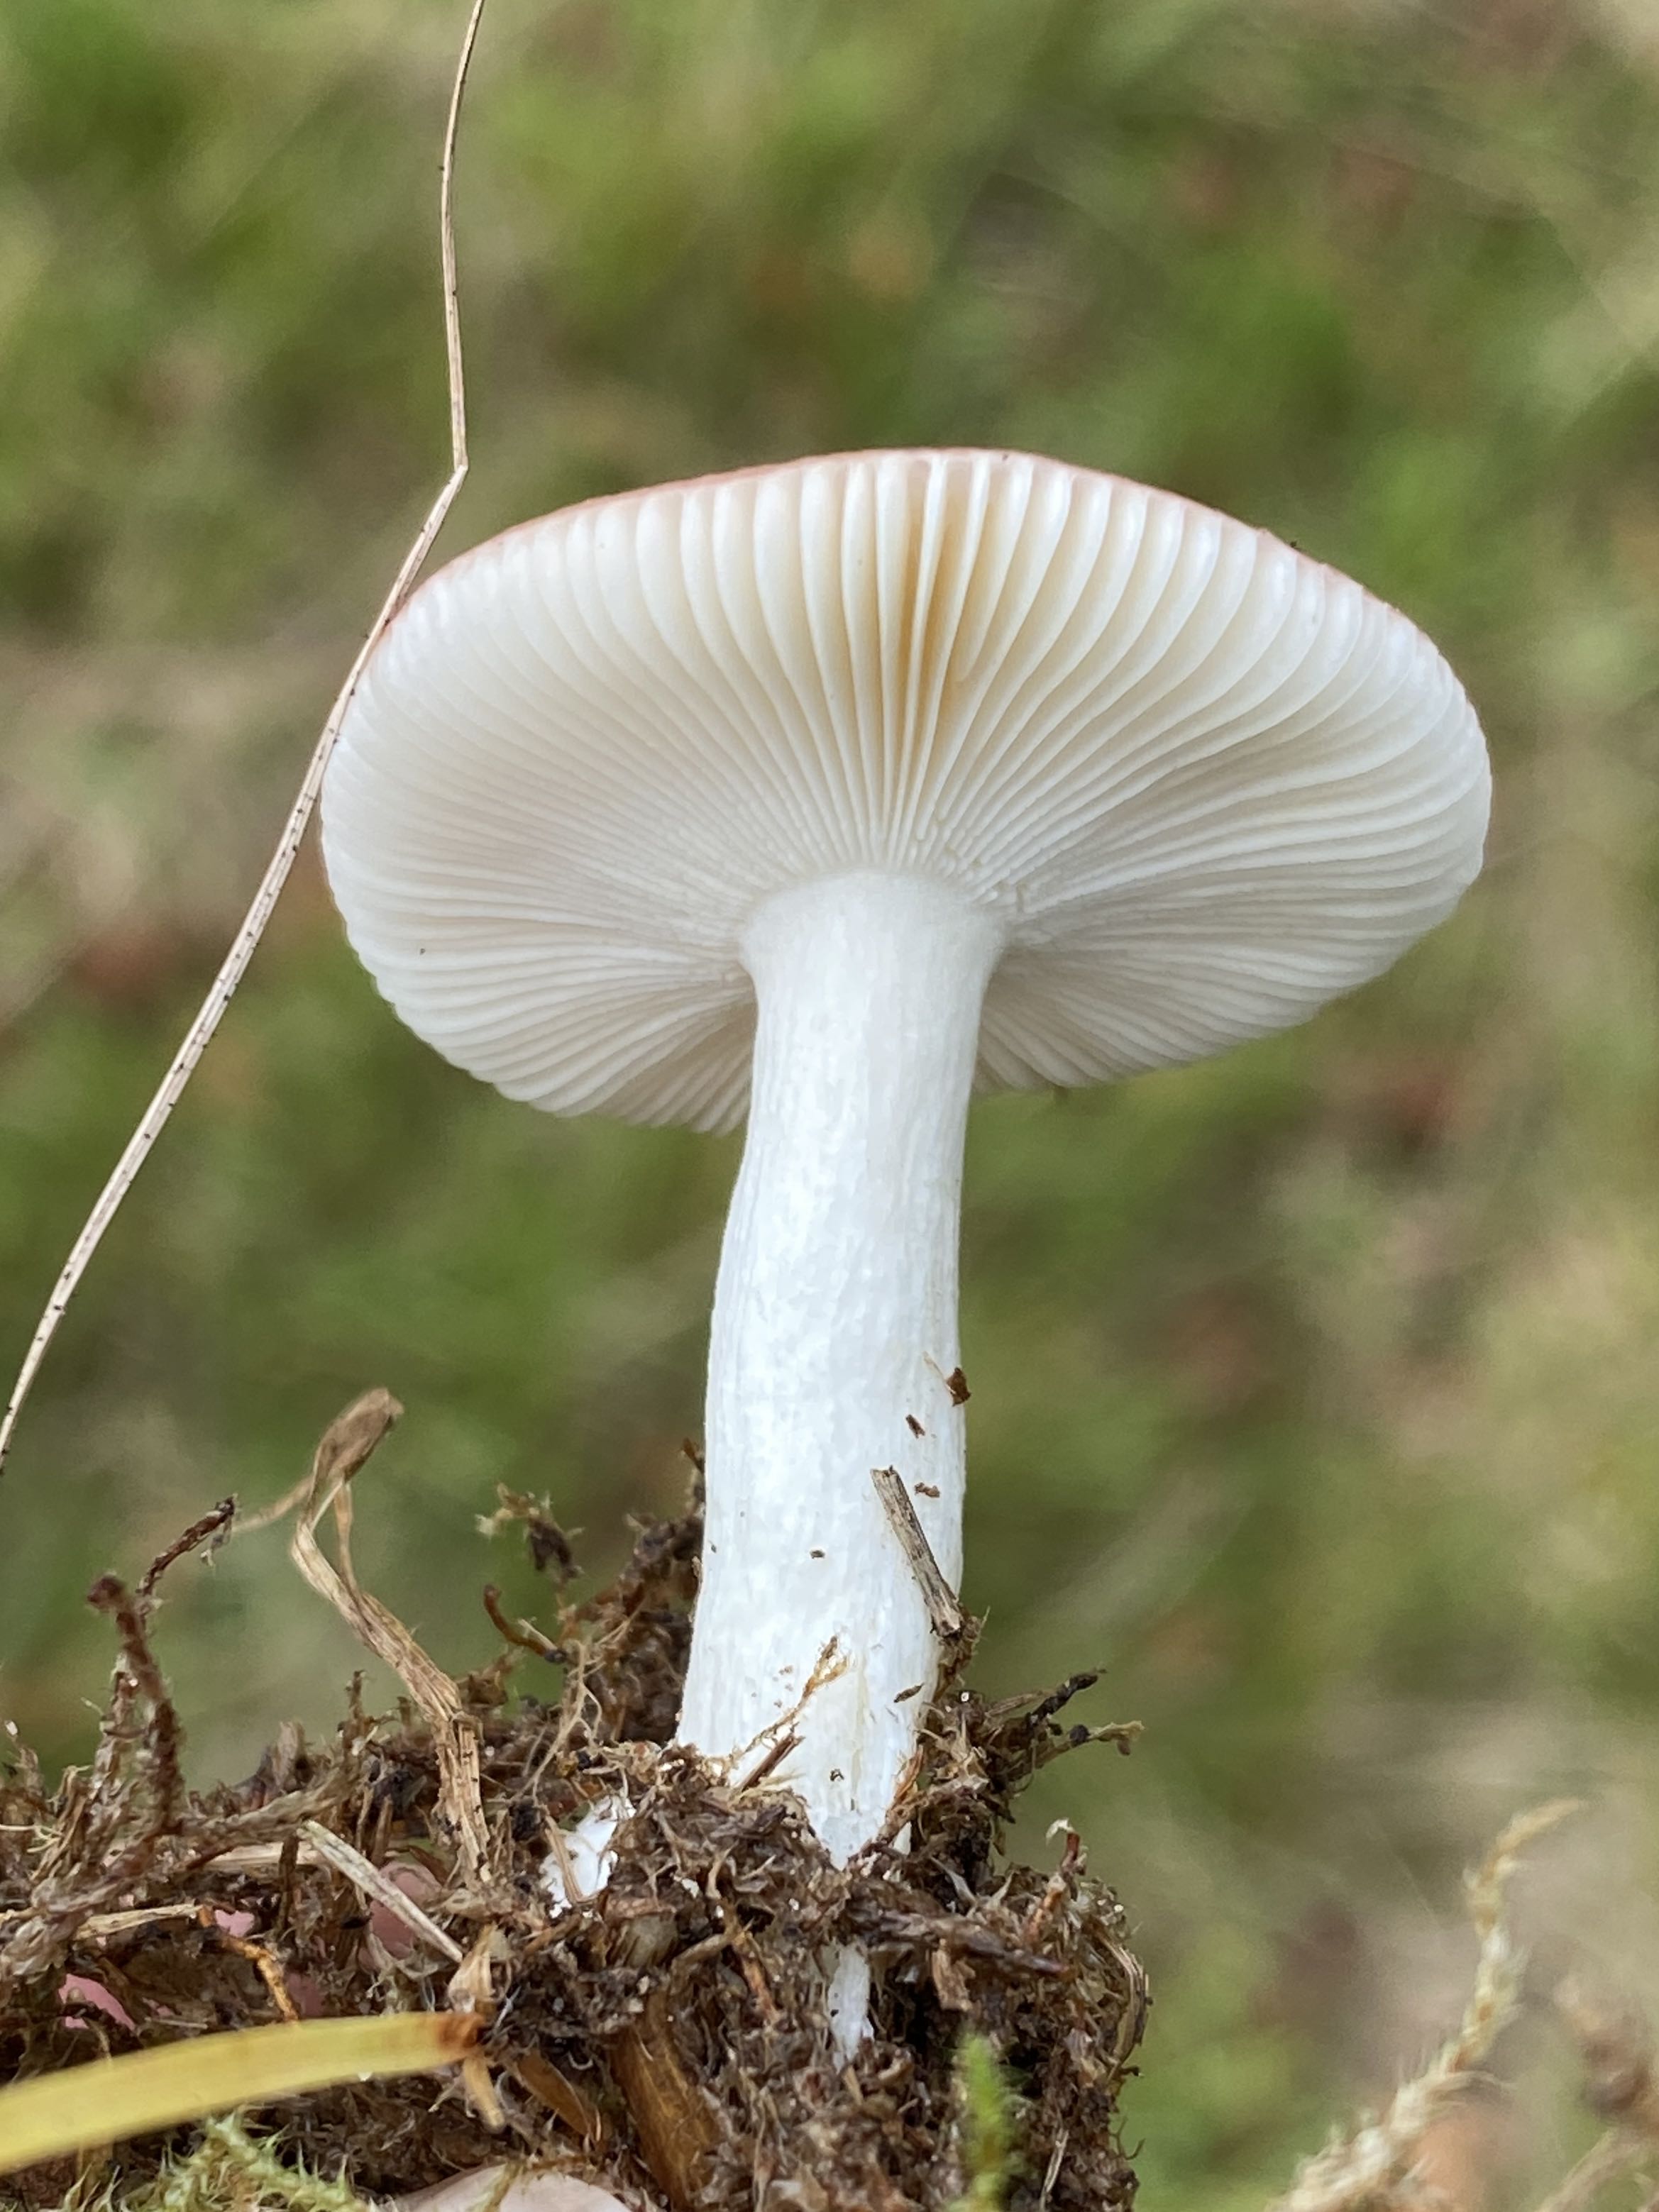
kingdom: Fungi
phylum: Basidiomycota
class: Agaricomycetes
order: Russulales
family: Russulaceae
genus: Russula
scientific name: Russula
